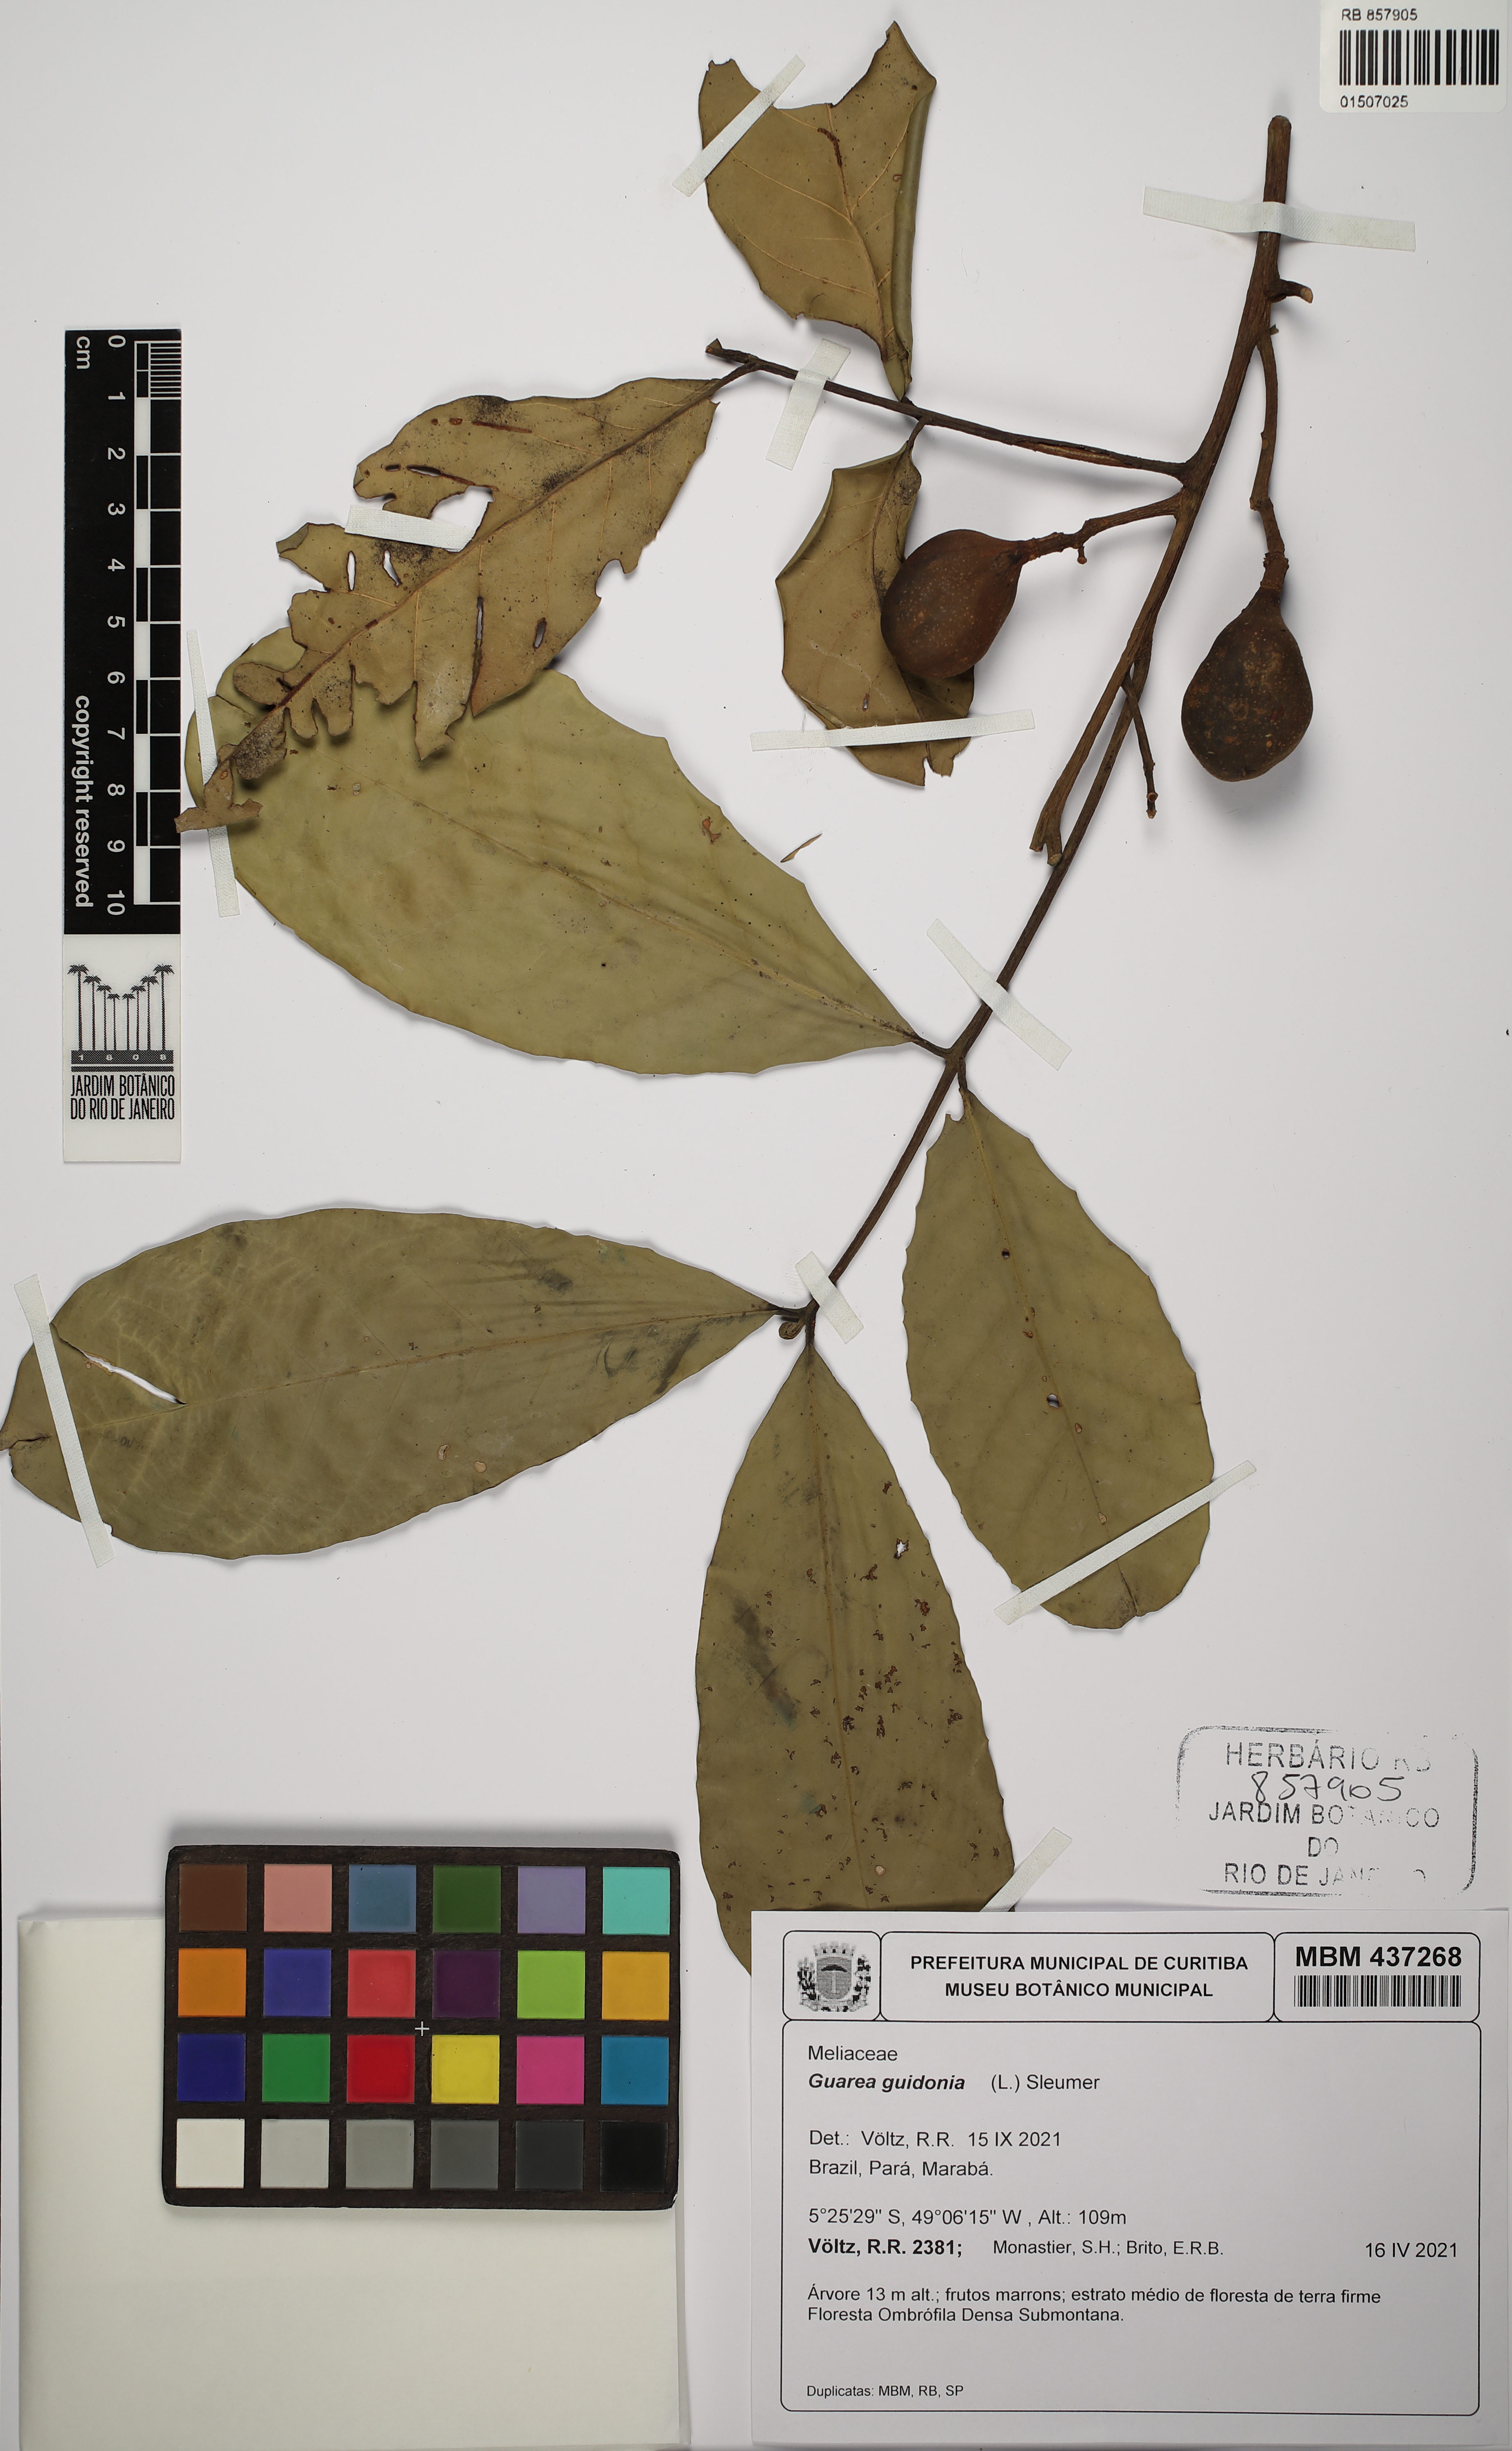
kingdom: Plantae
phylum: Tracheophyta
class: Magnoliopsida
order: Sapindales
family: Meliaceae
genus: Guarea
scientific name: Guarea guidonia
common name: American muskwood
